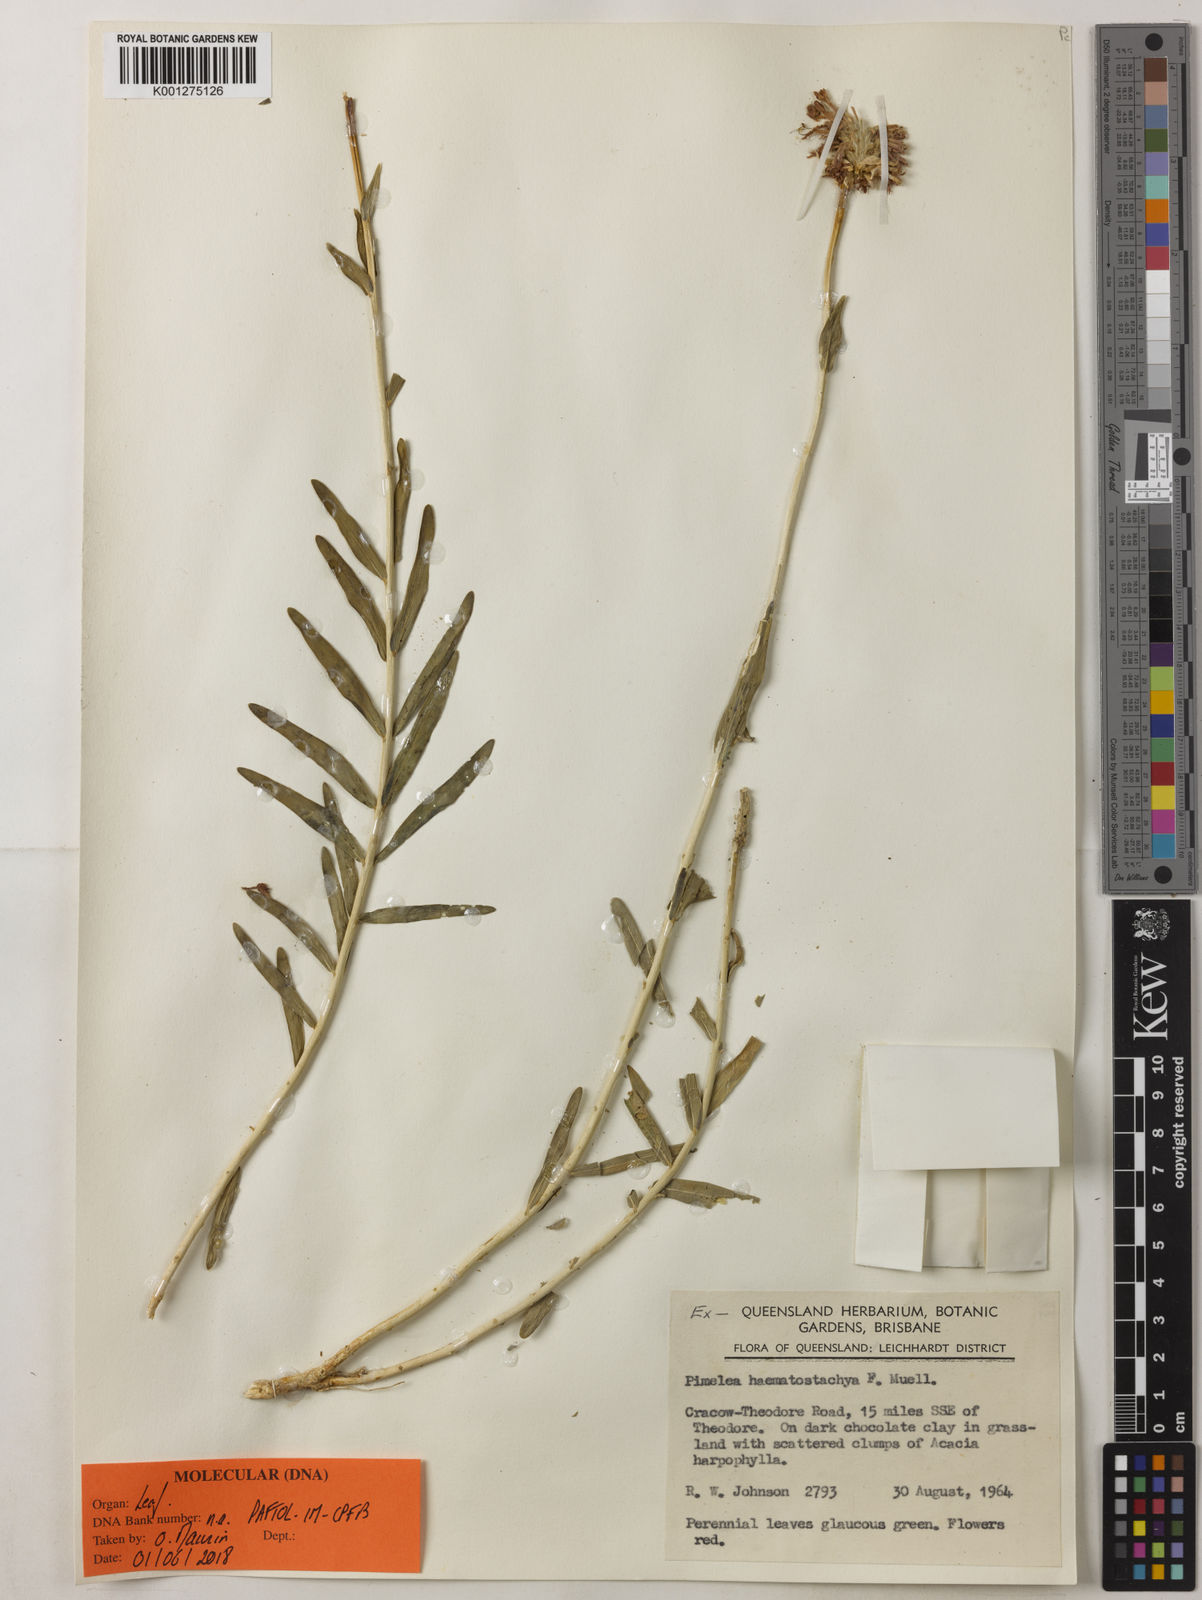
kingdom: Plantae
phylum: Tracheophyta
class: Magnoliopsida
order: Malvales
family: Thymelaeaceae
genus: Pimelea
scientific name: Pimelea haematostachya
